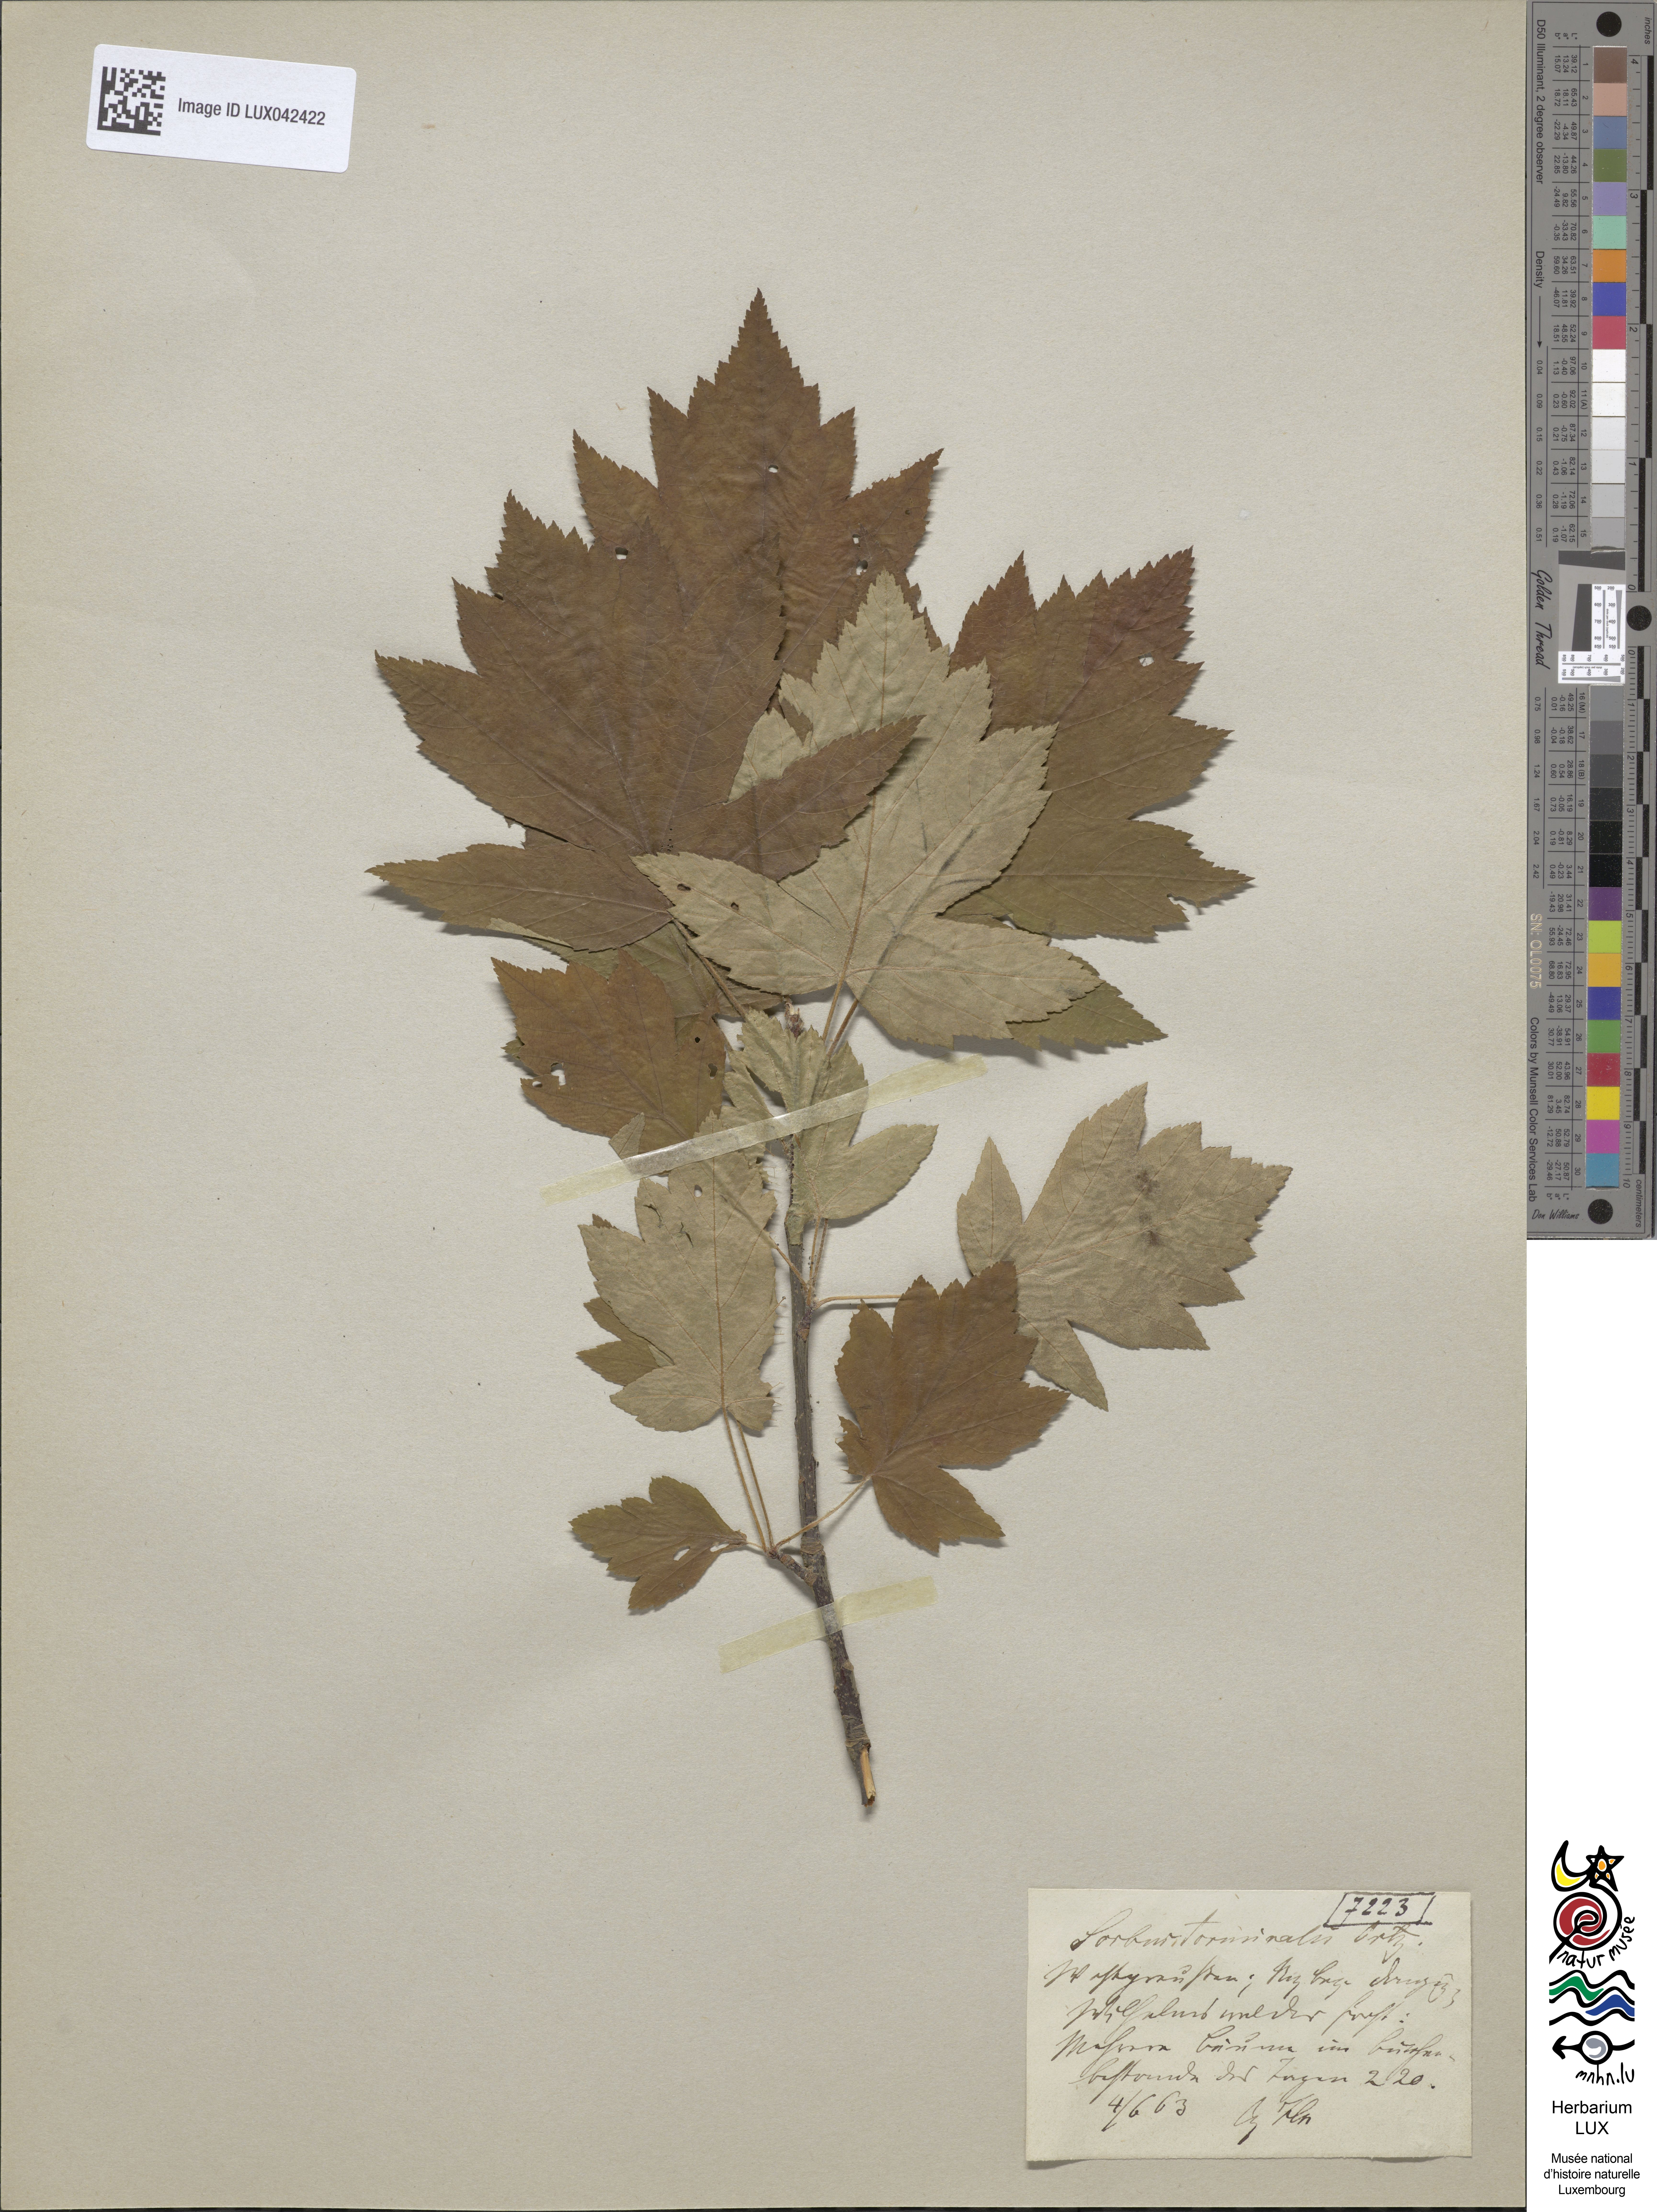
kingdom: Plantae
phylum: Tracheophyta
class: Magnoliopsida
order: Rosales
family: Rosaceae
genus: Torminalis
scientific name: Torminalis glaberrima
